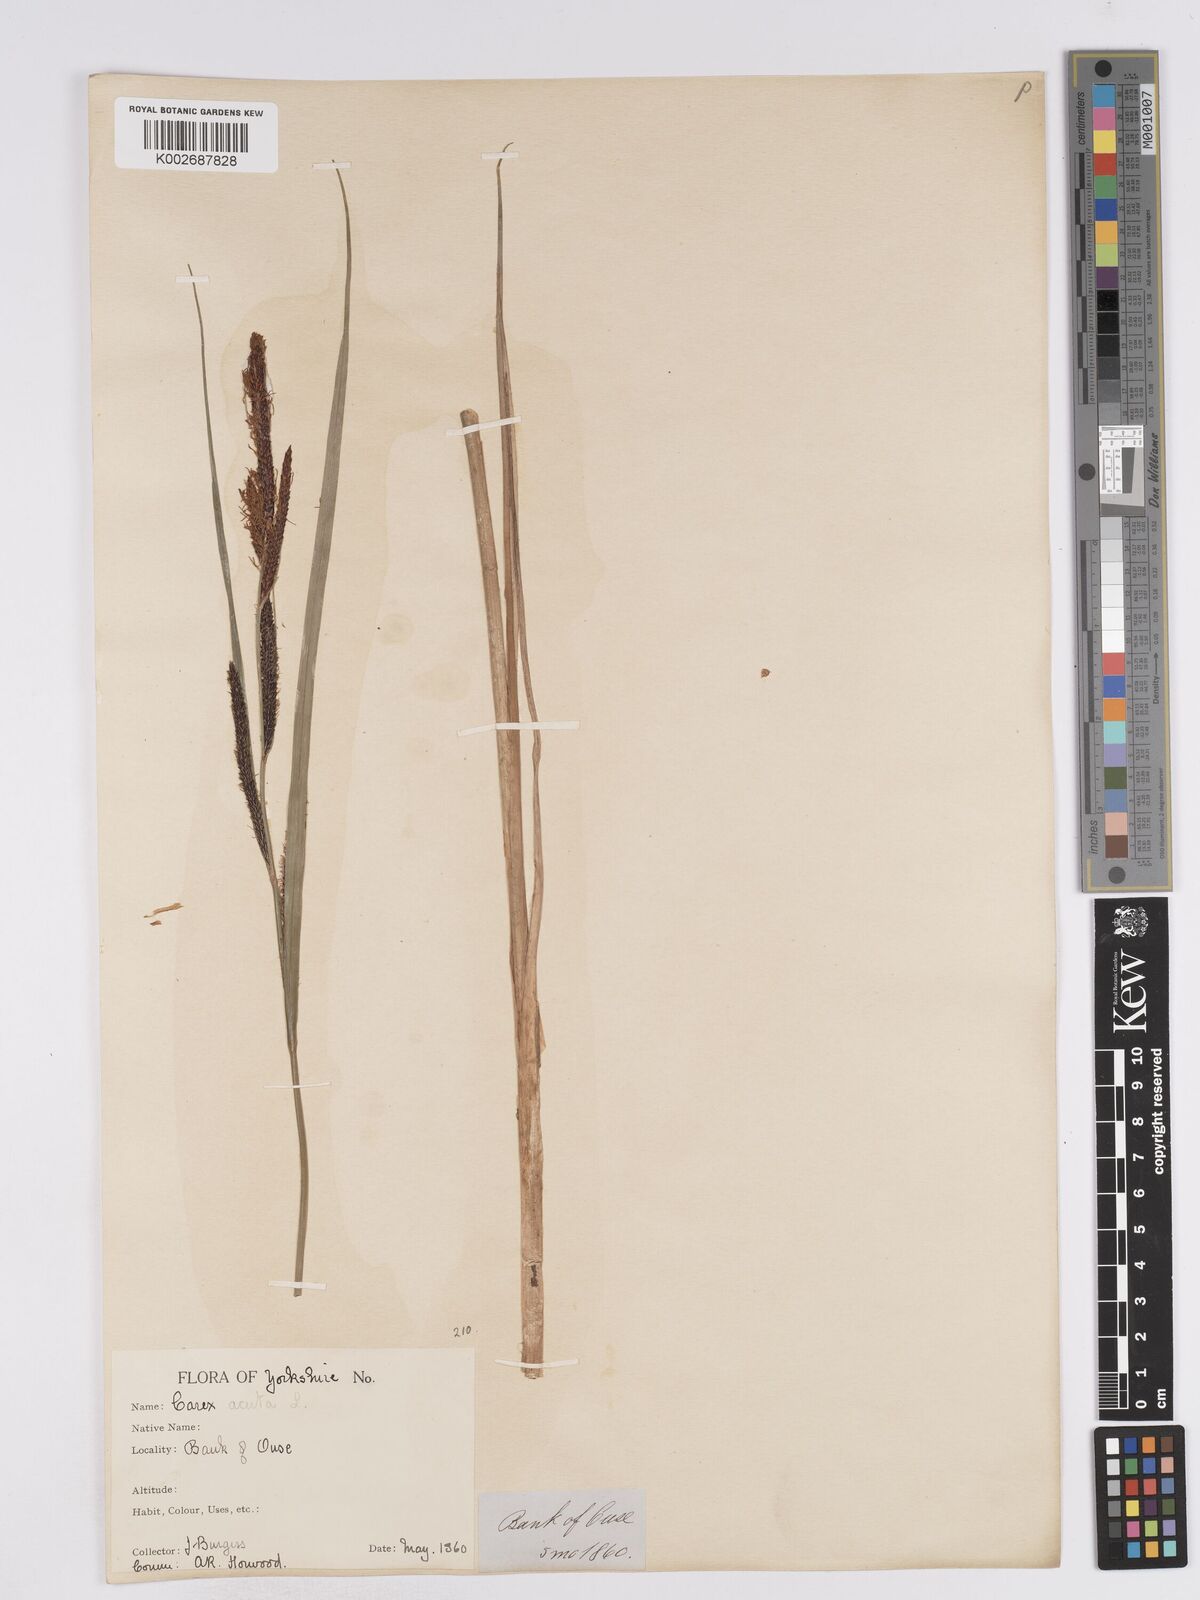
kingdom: Plantae
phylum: Tracheophyta
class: Liliopsida
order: Poales
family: Cyperaceae
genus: Carex
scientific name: Carex acuta
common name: Slender tufted-sedge
